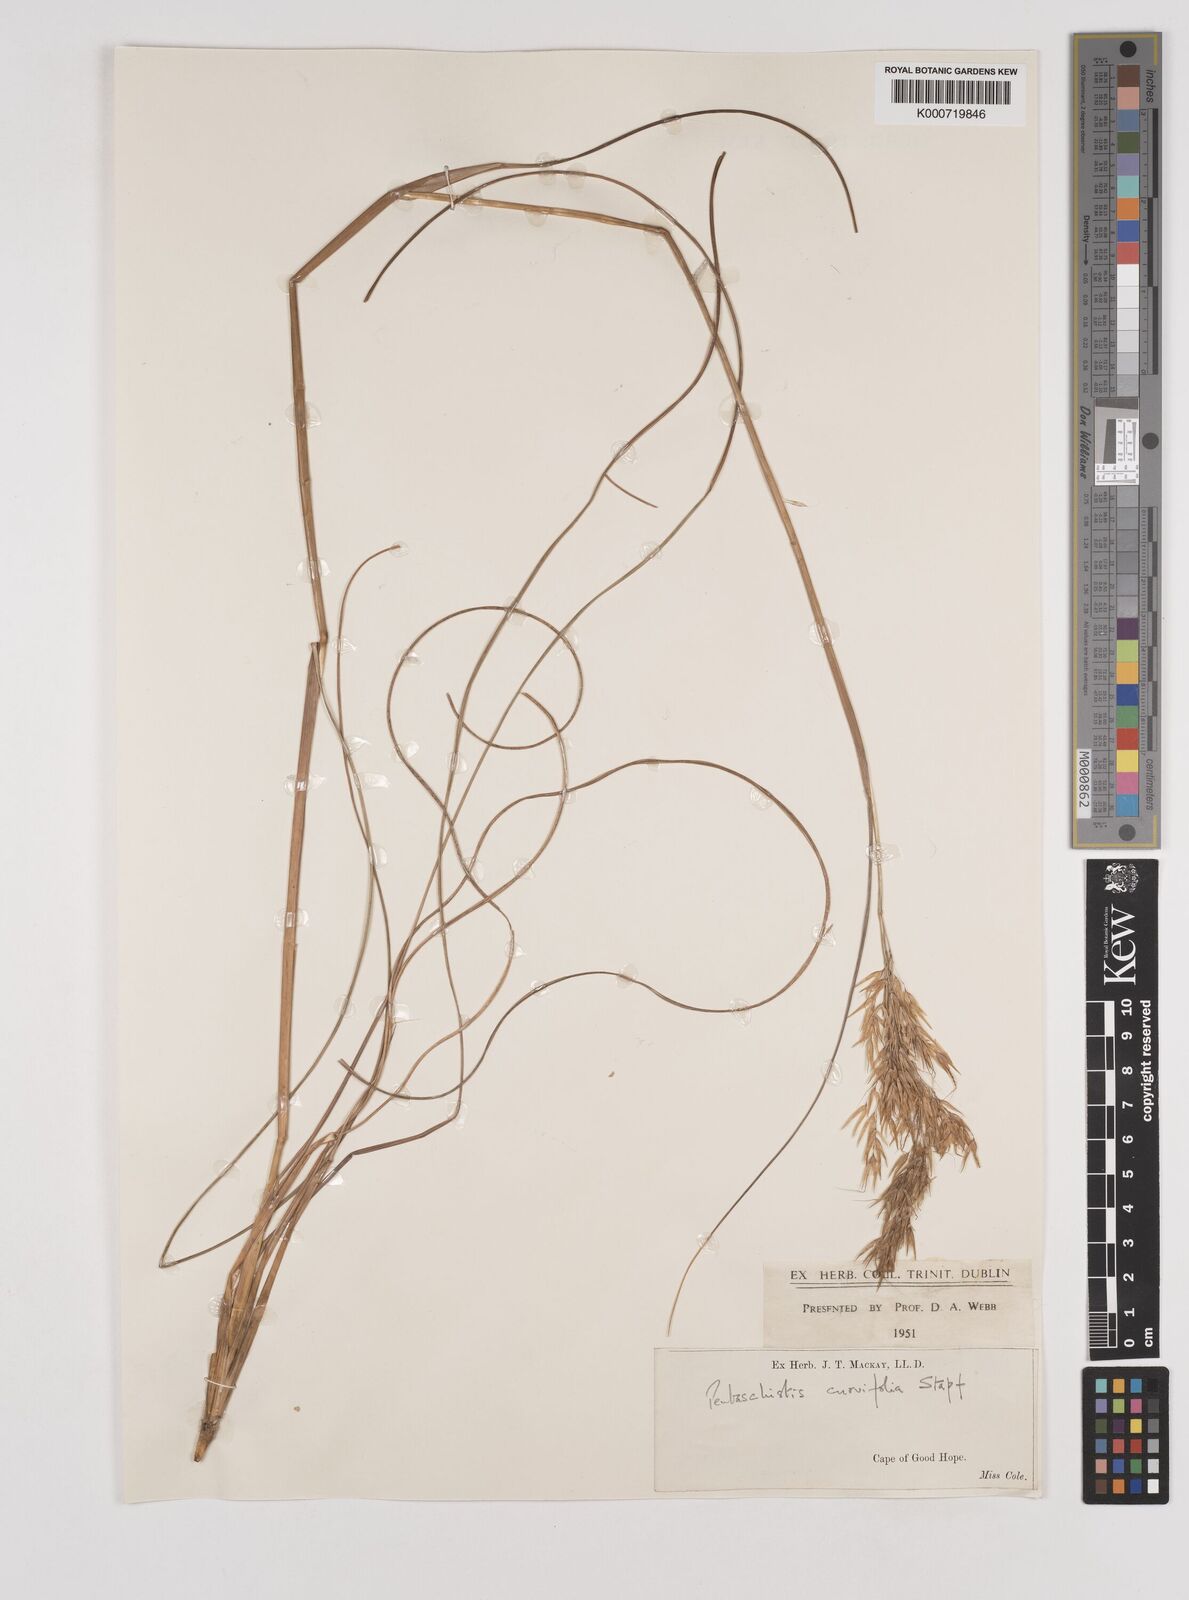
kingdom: Plantae
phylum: Tracheophyta
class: Liliopsida
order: Poales
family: Poaceae
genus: Pentaschistis
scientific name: Pentaschistis
